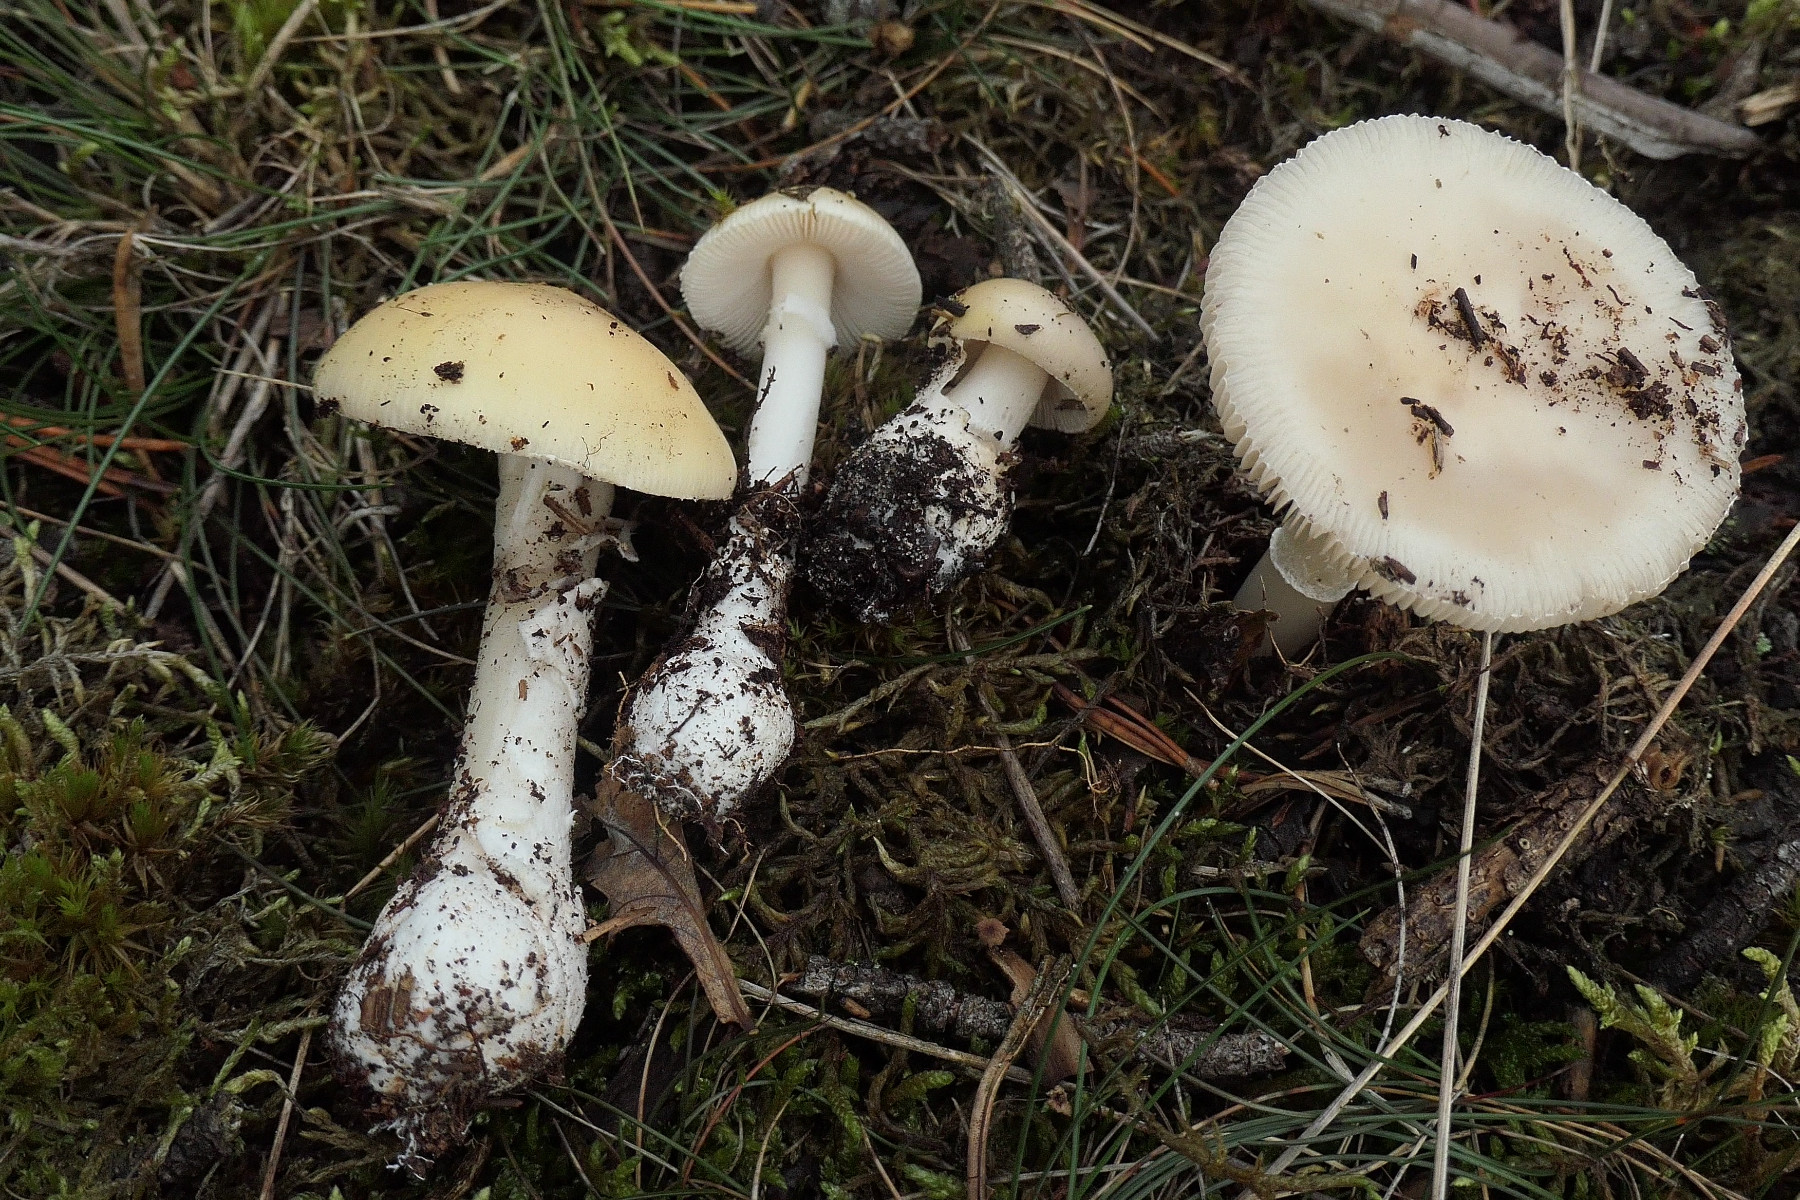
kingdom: Fungi
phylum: Basidiomycota
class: Agaricomycetes
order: Agaricales
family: Amanitaceae
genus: Amanita
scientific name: Amanita gemmata
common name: okkergul fluesvamp
